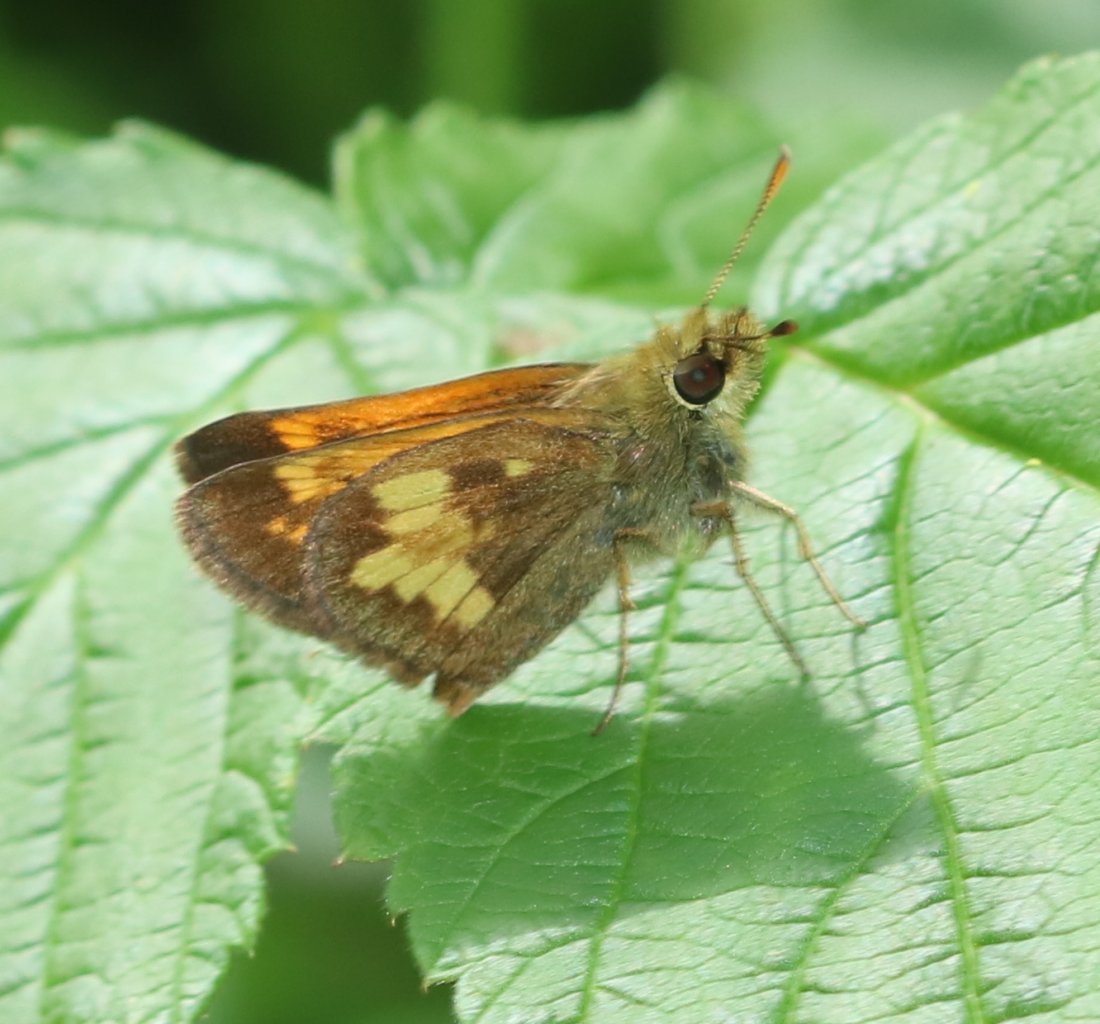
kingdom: Animalia
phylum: Arthropoda
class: Insecta
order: Lepidoptera
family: Hesperiidae
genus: Lon
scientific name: Lon hobomok
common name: Hobomok Skipper
